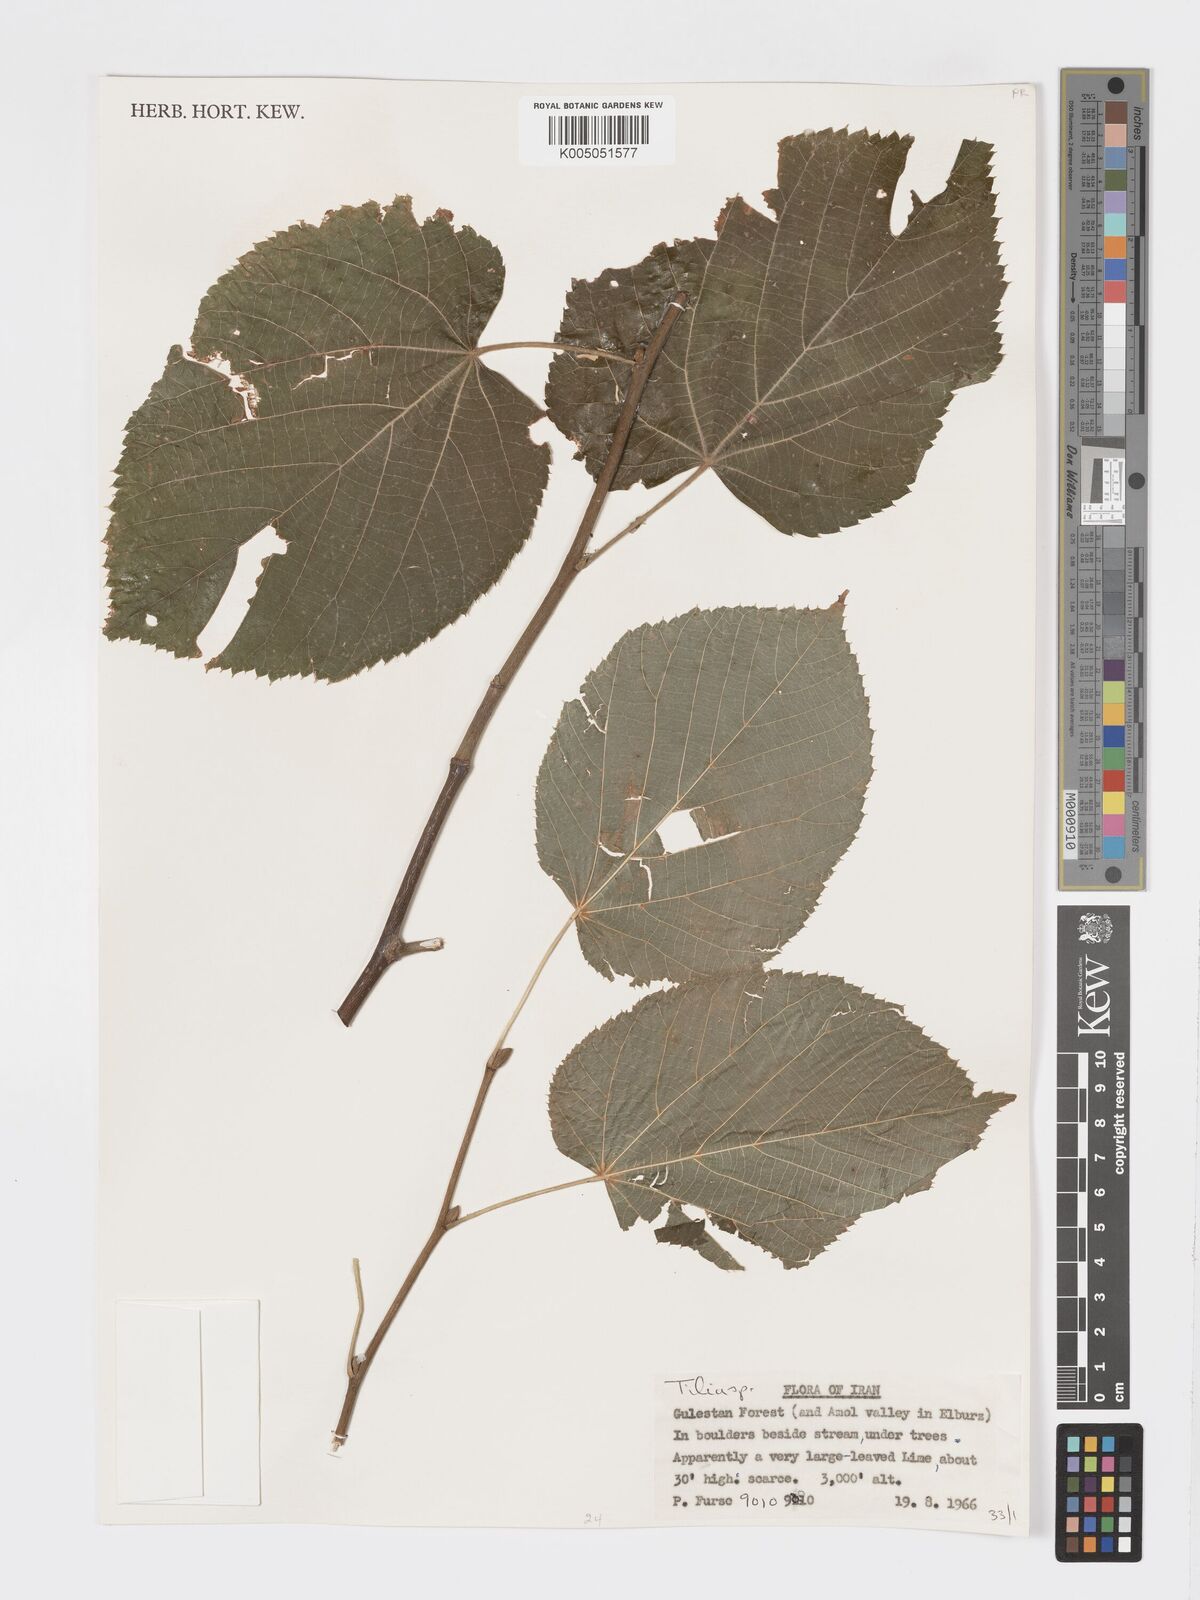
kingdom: Plantae
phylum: Tracheophyta
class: Magnoliopsida
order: Malvales
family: Malvaceae
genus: Tilia
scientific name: Tilia
